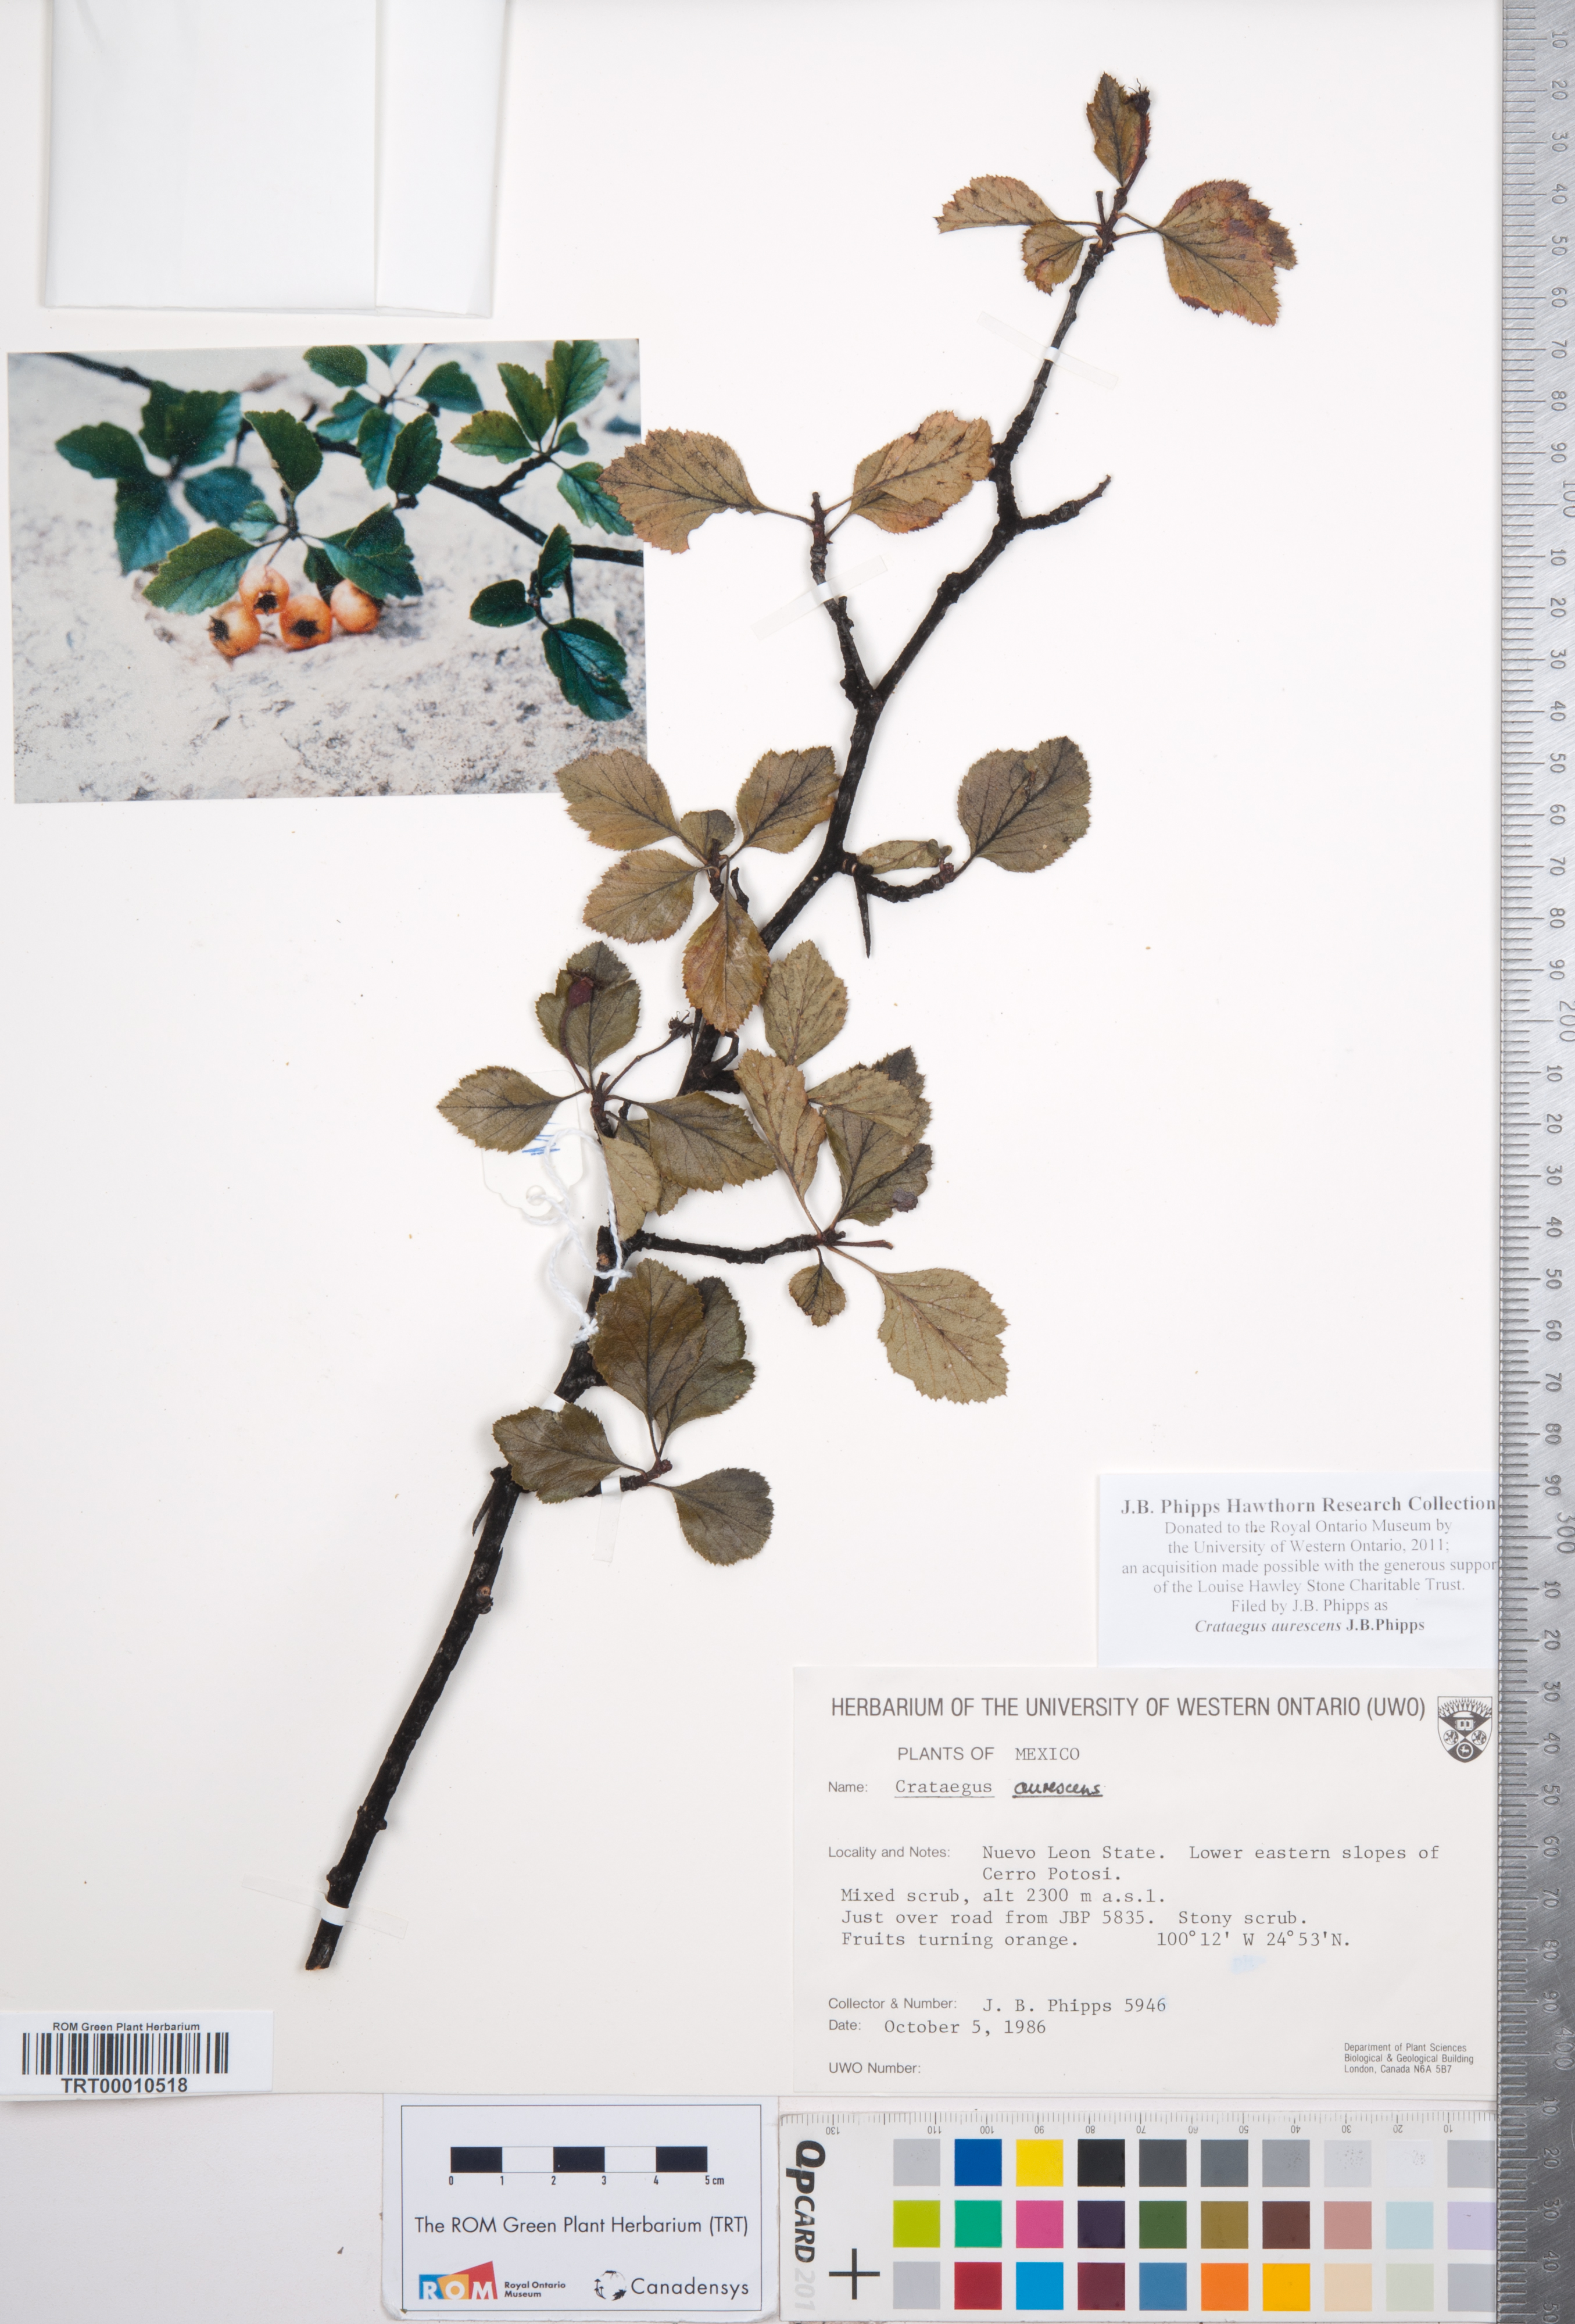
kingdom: Plantae
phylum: Tracheophyta
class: Magnoliopsida
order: Rosales
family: Rosaceae
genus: Crataegus
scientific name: Crataegus aurescens
